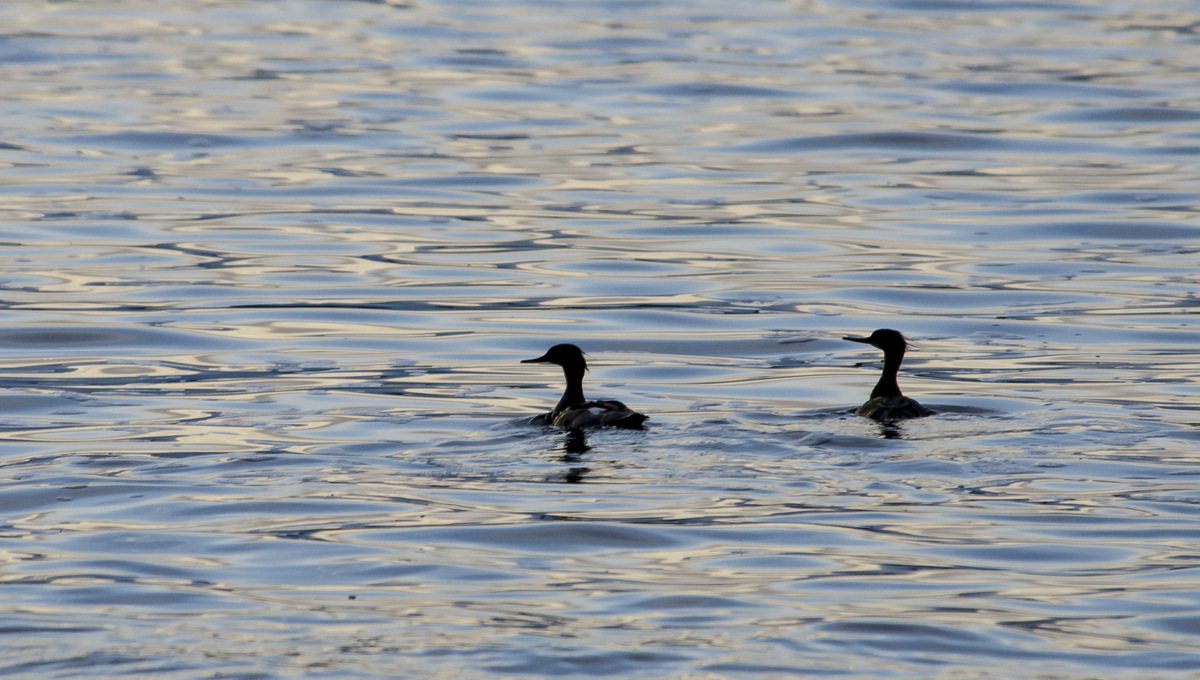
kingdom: Animalia
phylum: Chordata
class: Aves
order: Anseriformes
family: Anatidae
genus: Mergus
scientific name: Mergus serrator
